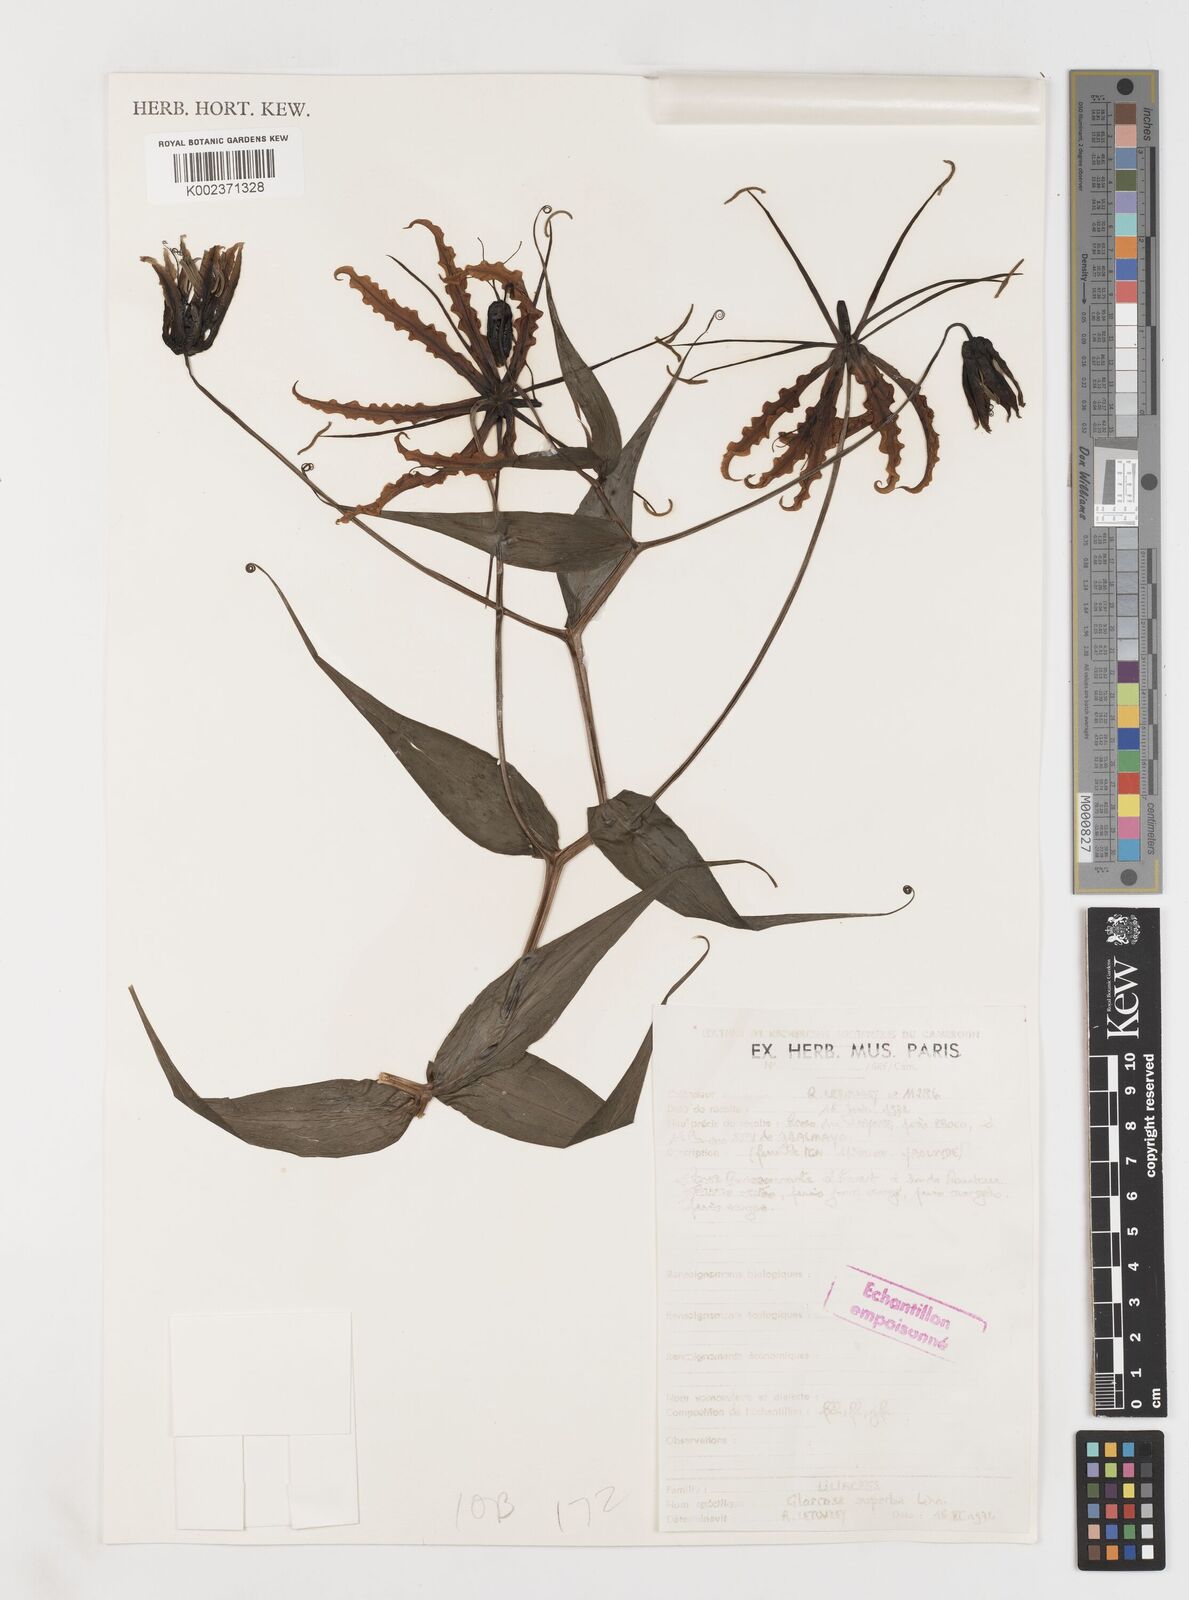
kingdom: Plantae
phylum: Tracheophyta
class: Liliopsida
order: Liliales
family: Colchicaceae
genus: Gloriosa
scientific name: Gloriosa superba
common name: Flame lily
